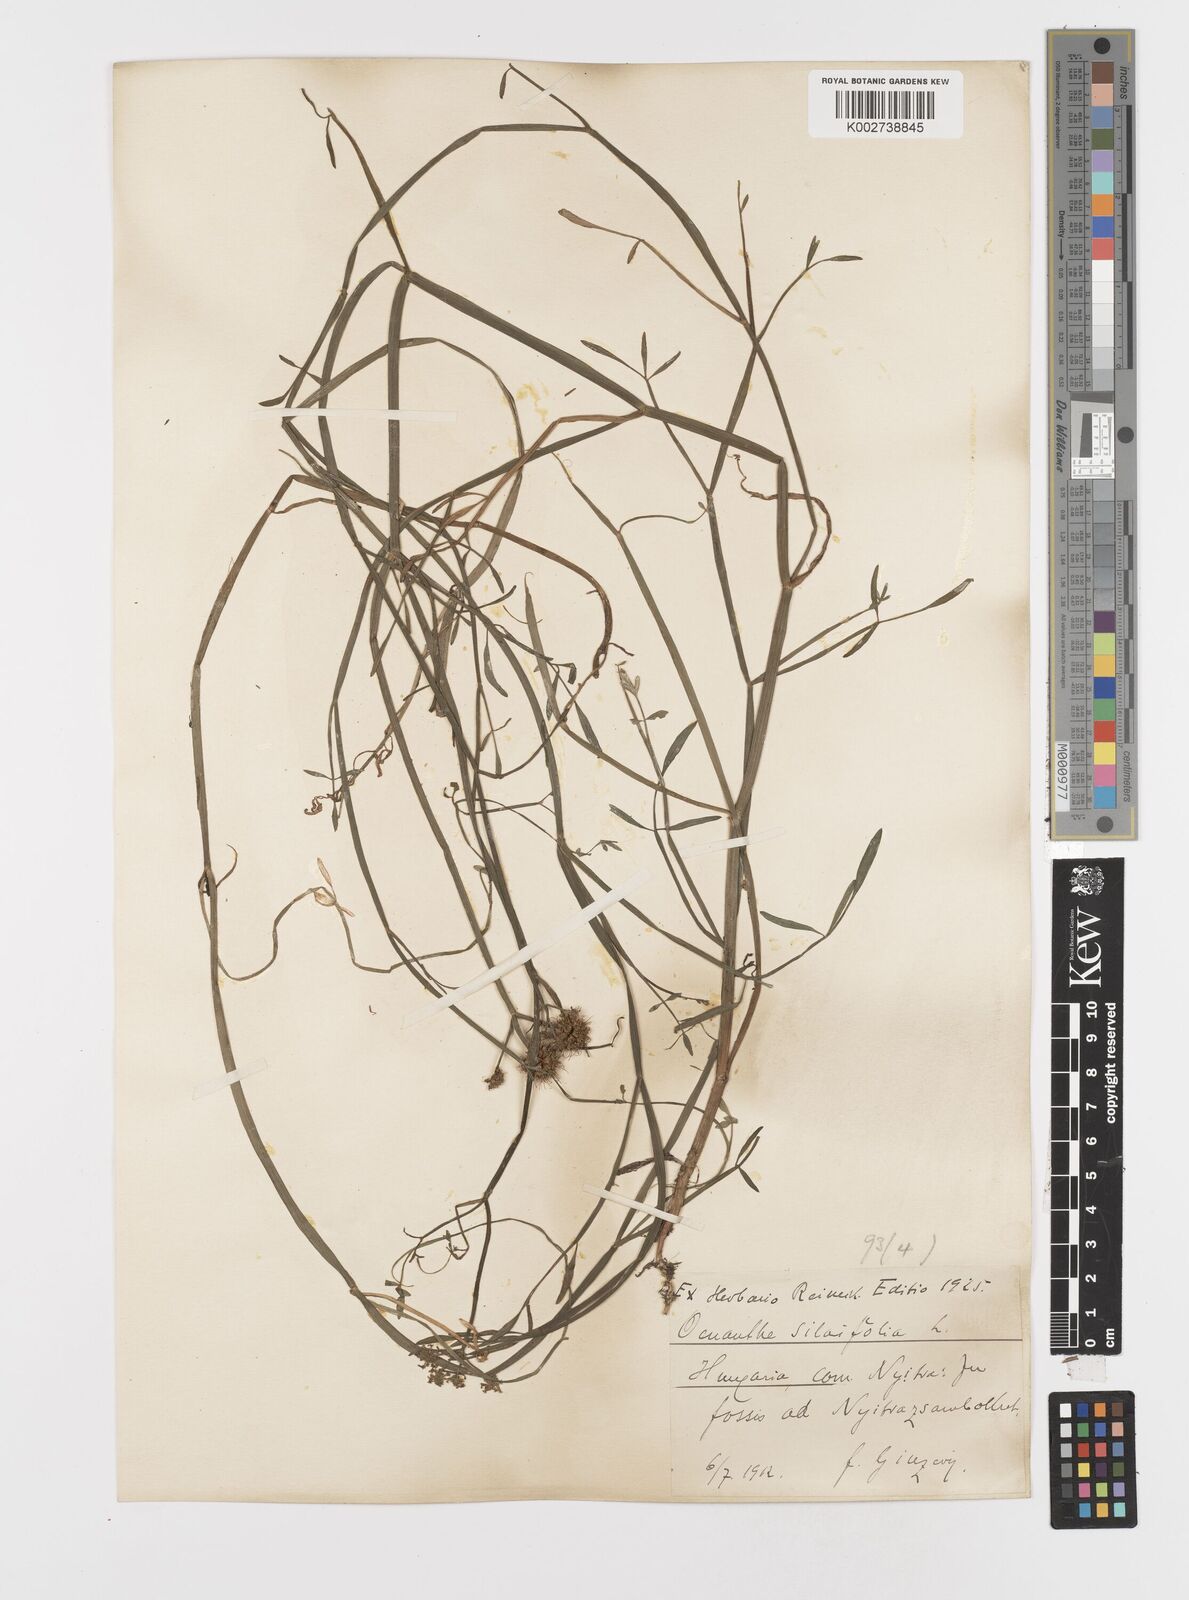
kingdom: Plantae
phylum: Tracheophyta
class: Magnoliopsida
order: Apiales
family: Apiaceae
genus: Oenanthe
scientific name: Oenanthe silaifolia
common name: Narrow-leaved water-dropwort
